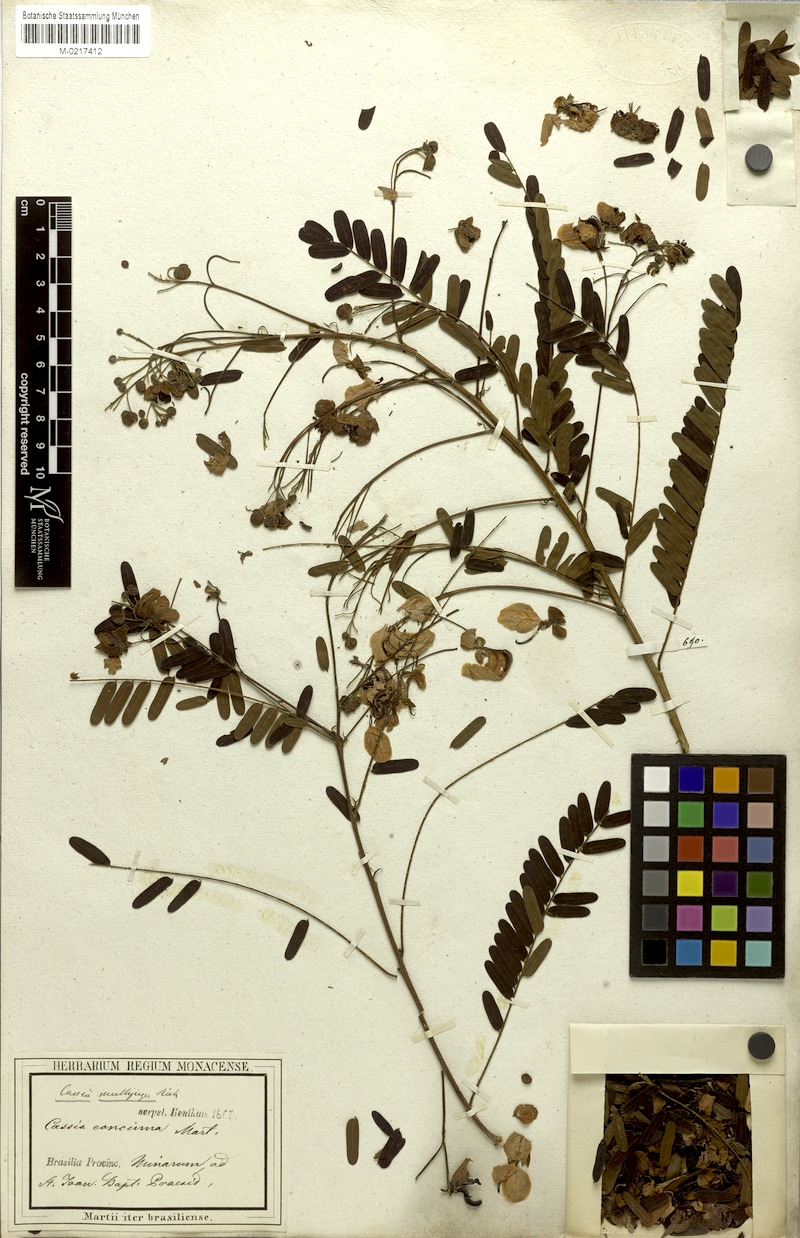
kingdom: Plantae
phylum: Tracheophyta
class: Magnoliopsida
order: Fabales
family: Fabaceae
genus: Chamaecrista
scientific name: Chamaecrista concinna
